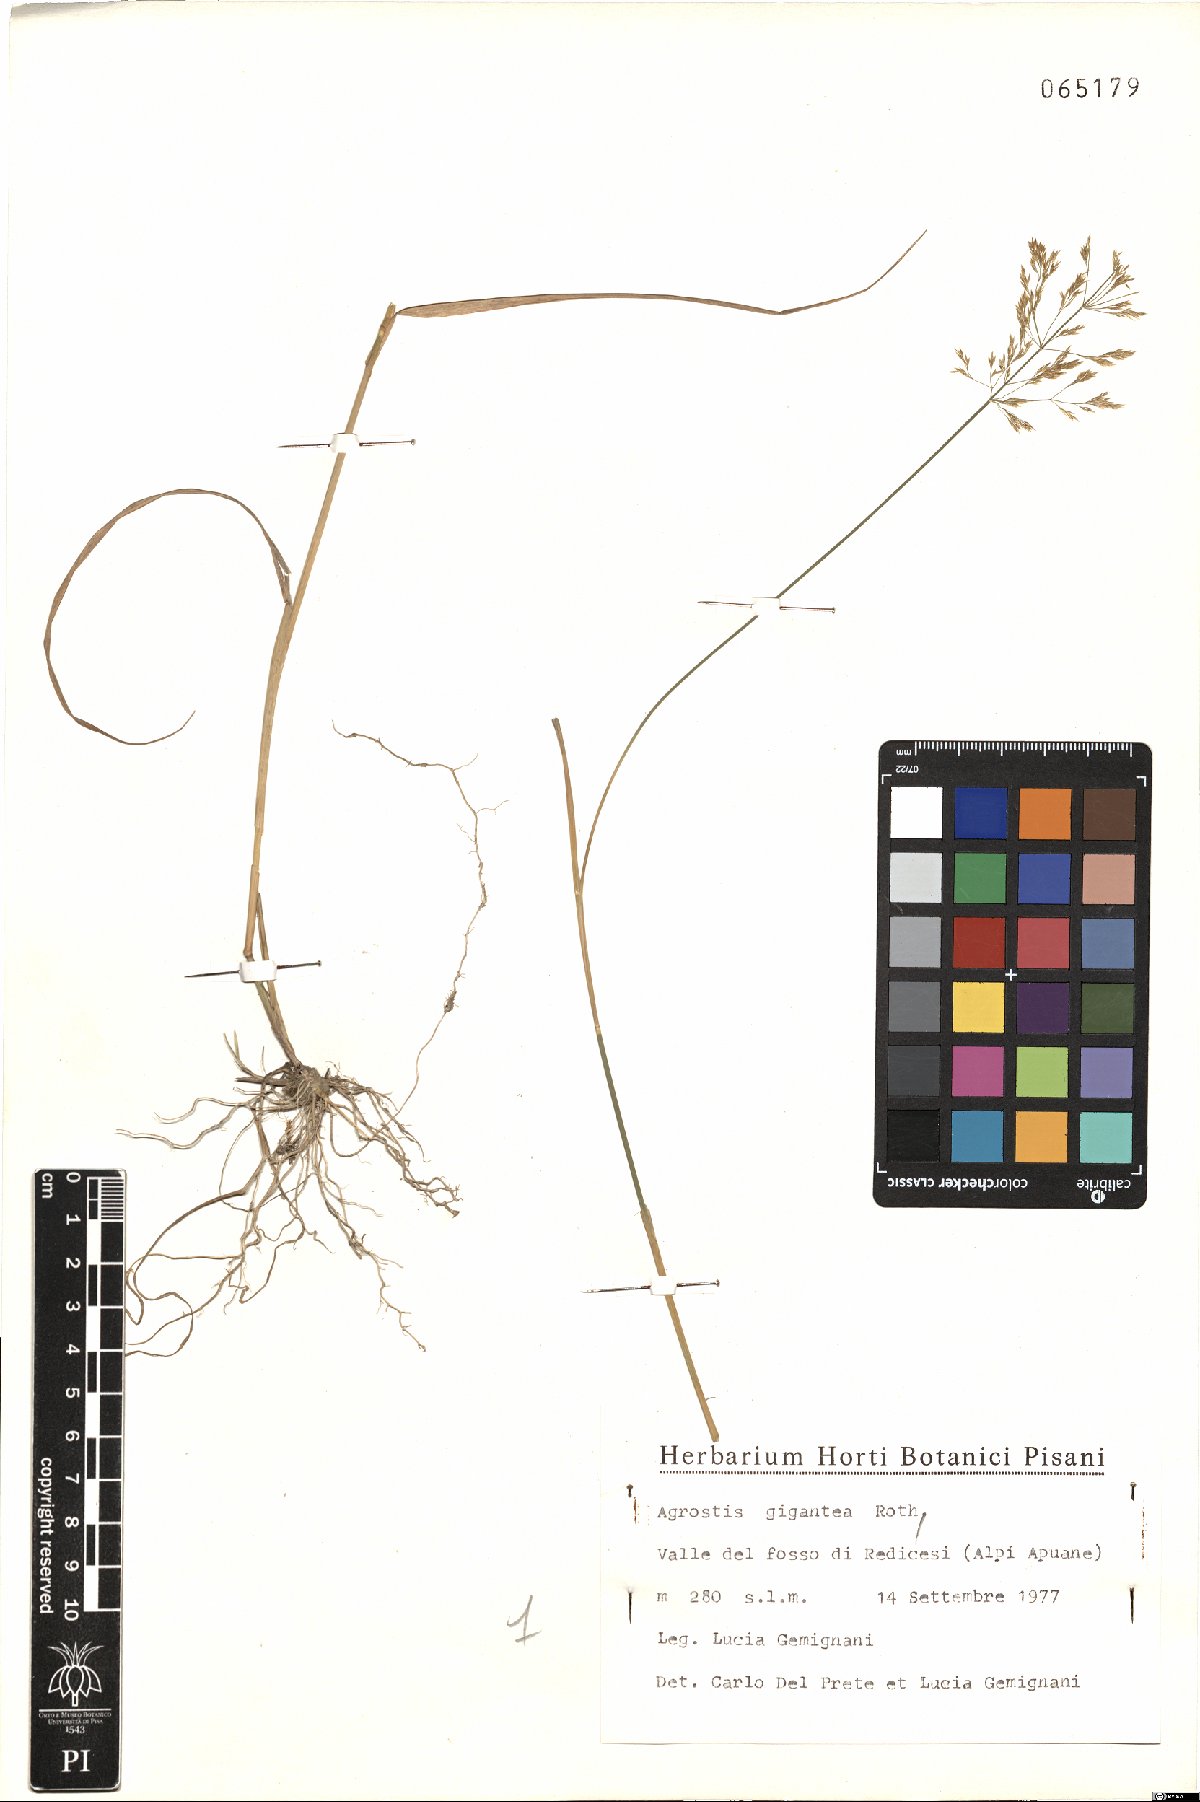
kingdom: Plantae
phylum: Tracheophyta
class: Liliopsida
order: Poales
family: Poaceae
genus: Agrostis
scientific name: Agrostis gigantea
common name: Black bent
